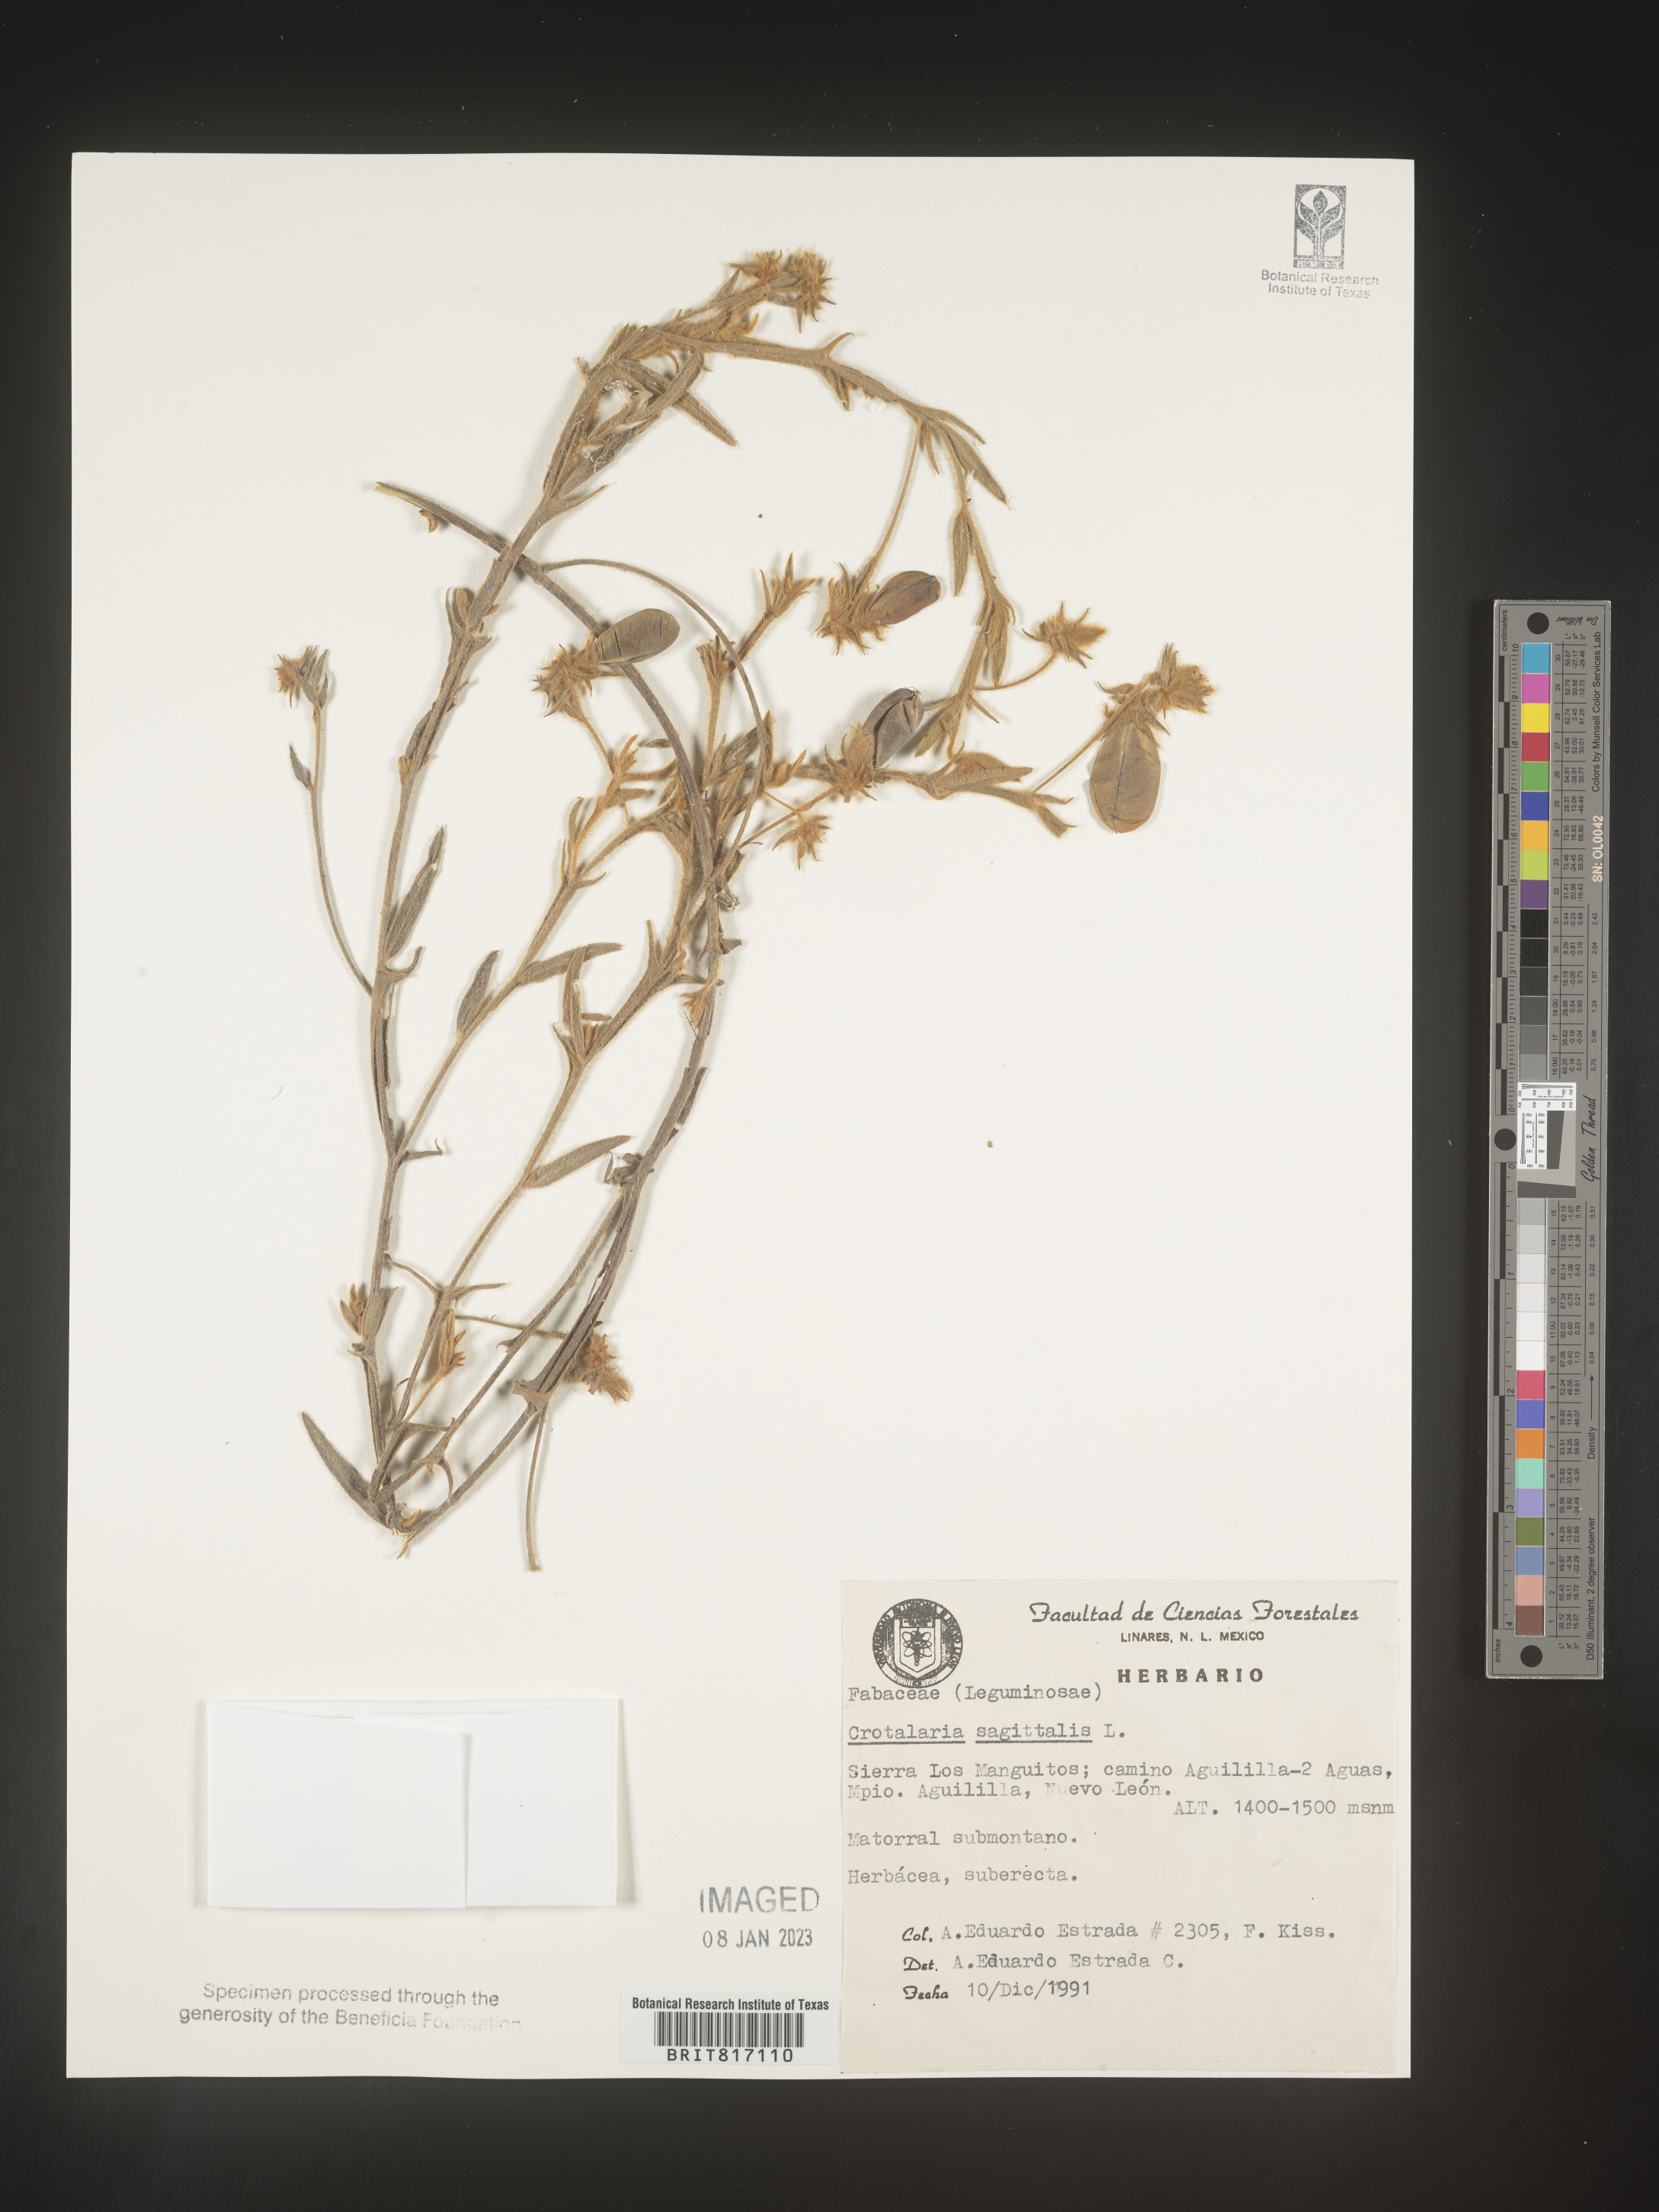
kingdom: Plantae
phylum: Tracheophyta
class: Magnoliopsida
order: Fabales
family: Fabaceae
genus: Crotalaria
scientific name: Crotalaria
